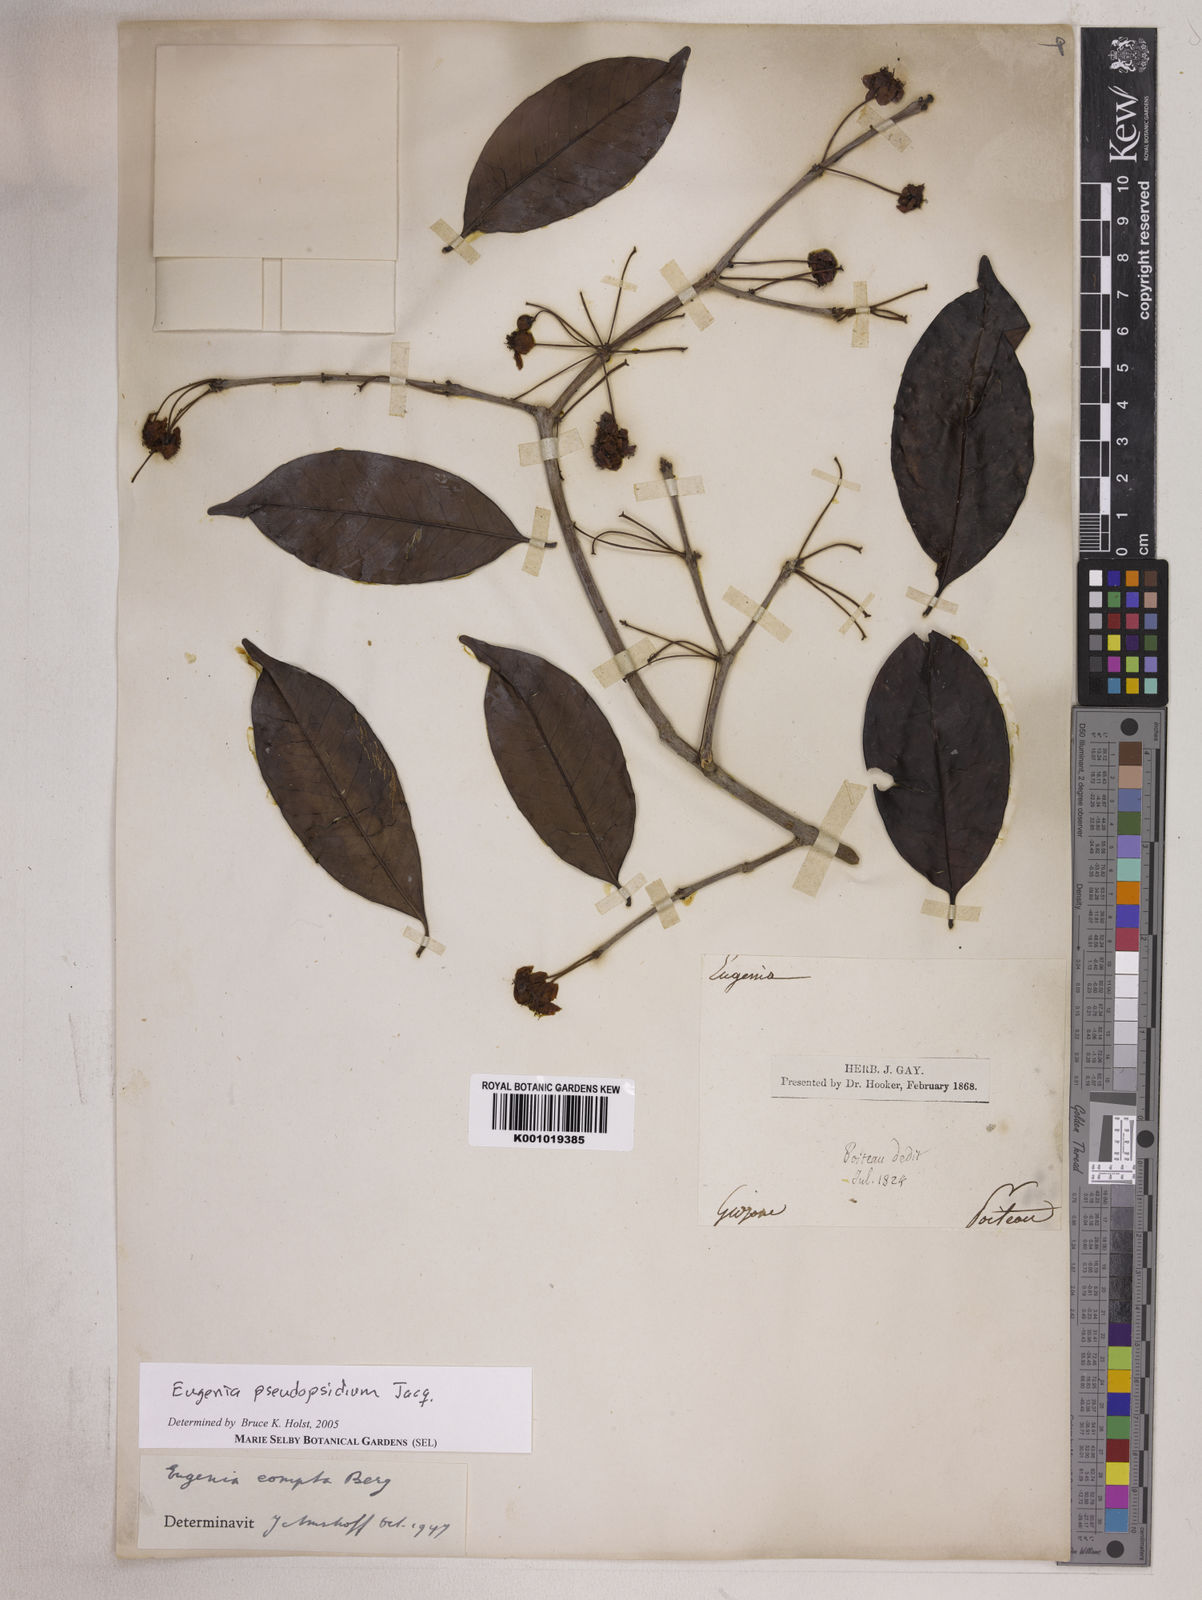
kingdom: Plantae
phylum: Tracheophyta
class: Magnoliopsida
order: Myrtales
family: Myrtaceae
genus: Eugenia
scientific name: Eugenia pseudopsidium
